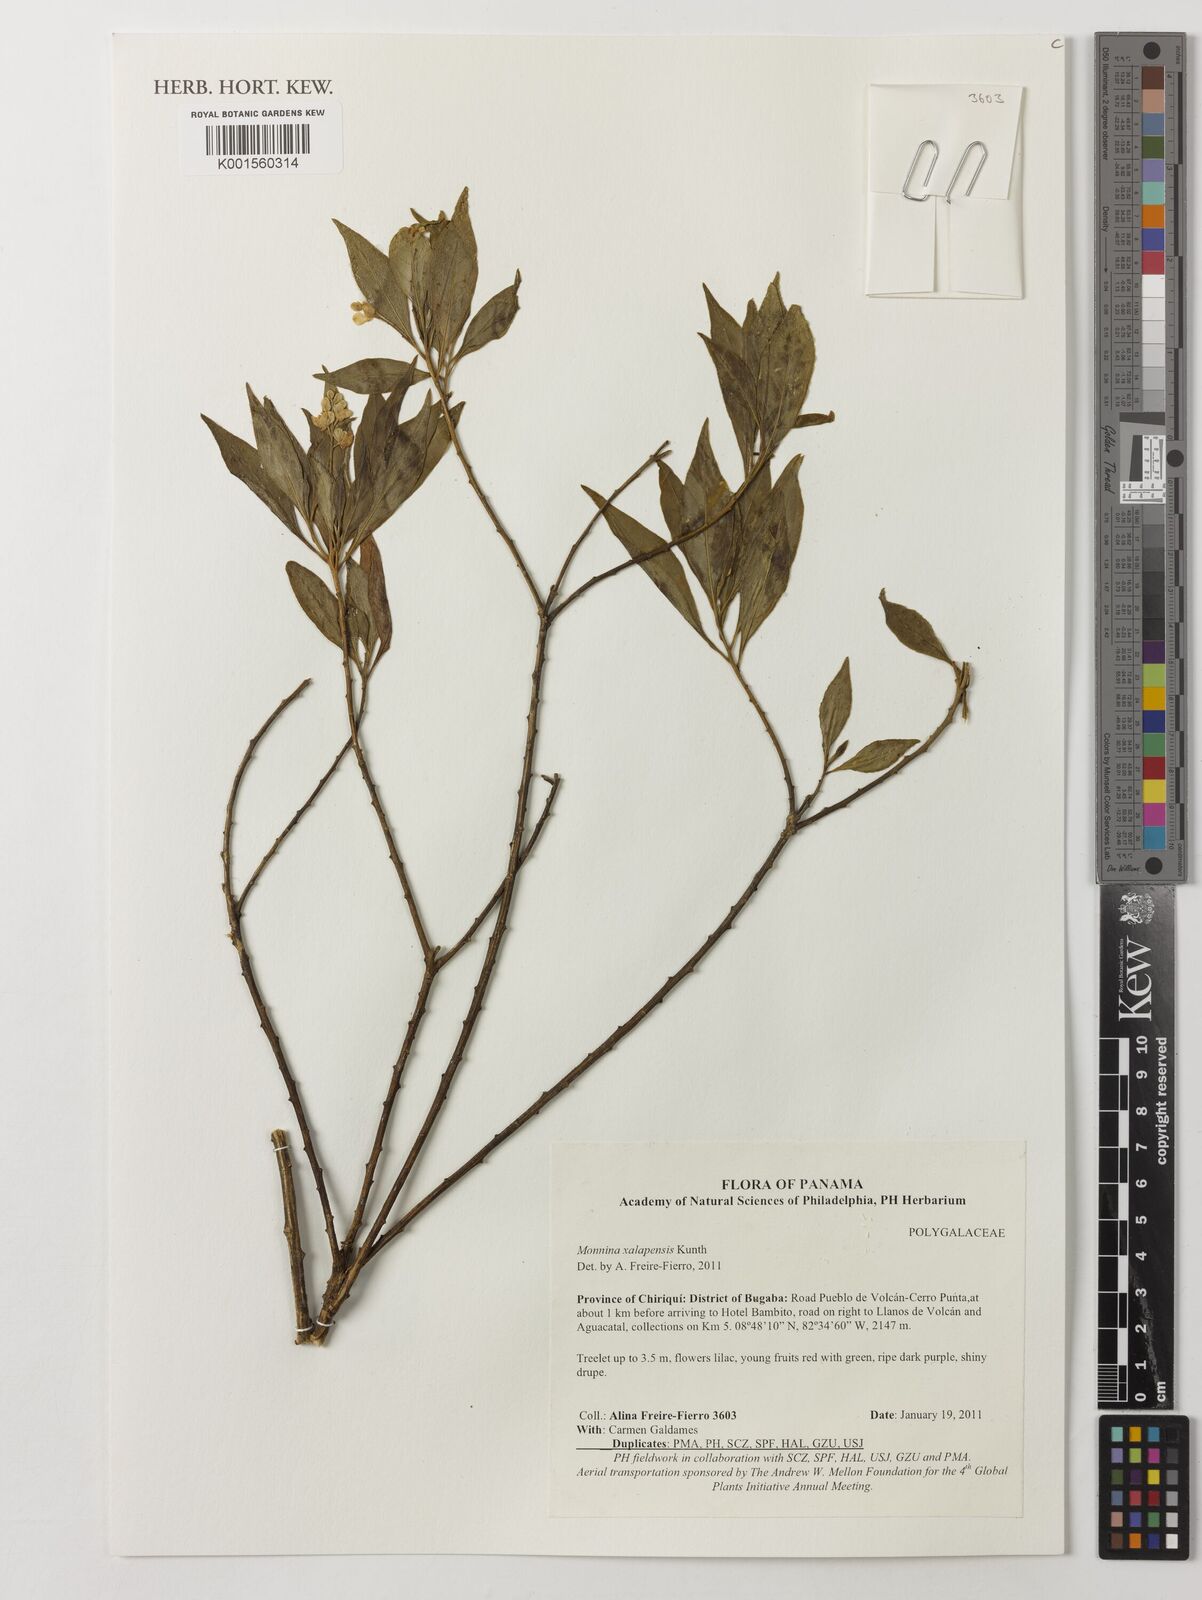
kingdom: Plantae
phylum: Tracheophyta
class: Magnoliopsida
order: Fabales
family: Polygalaceae
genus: Monnina
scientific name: Monnina xalapensis
